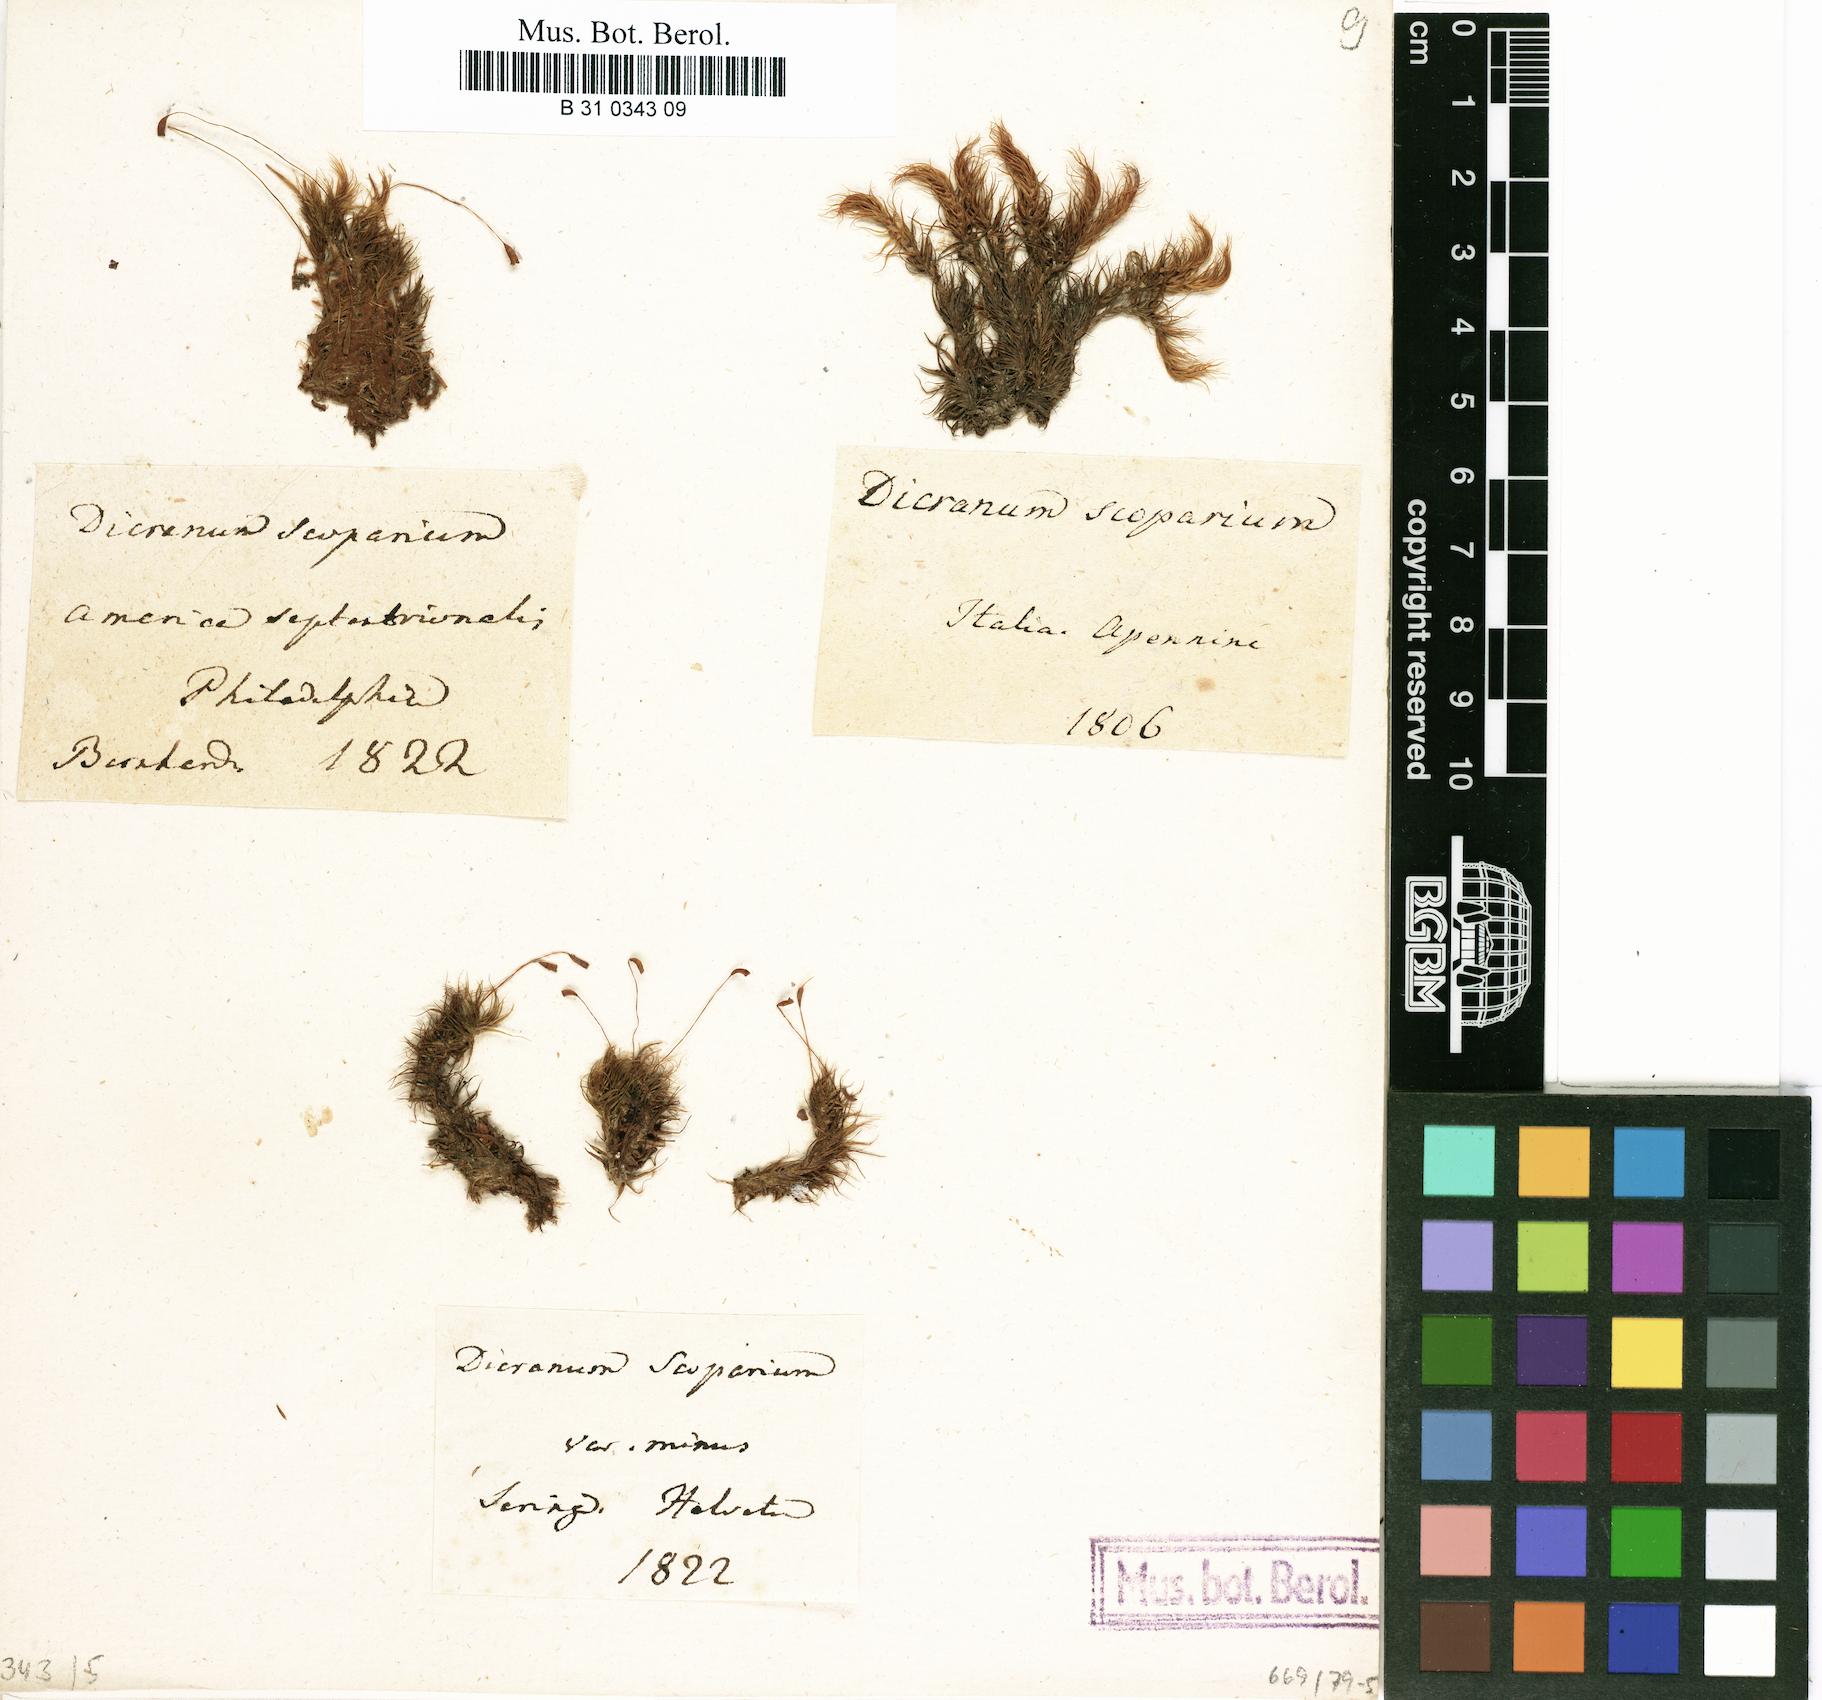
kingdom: Plantae
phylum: Bryophyta
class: Bryopsida
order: Dicranales
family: Dicranaceae
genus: Dicranum
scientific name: Dicranum scoparium
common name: Broom fork-moss
